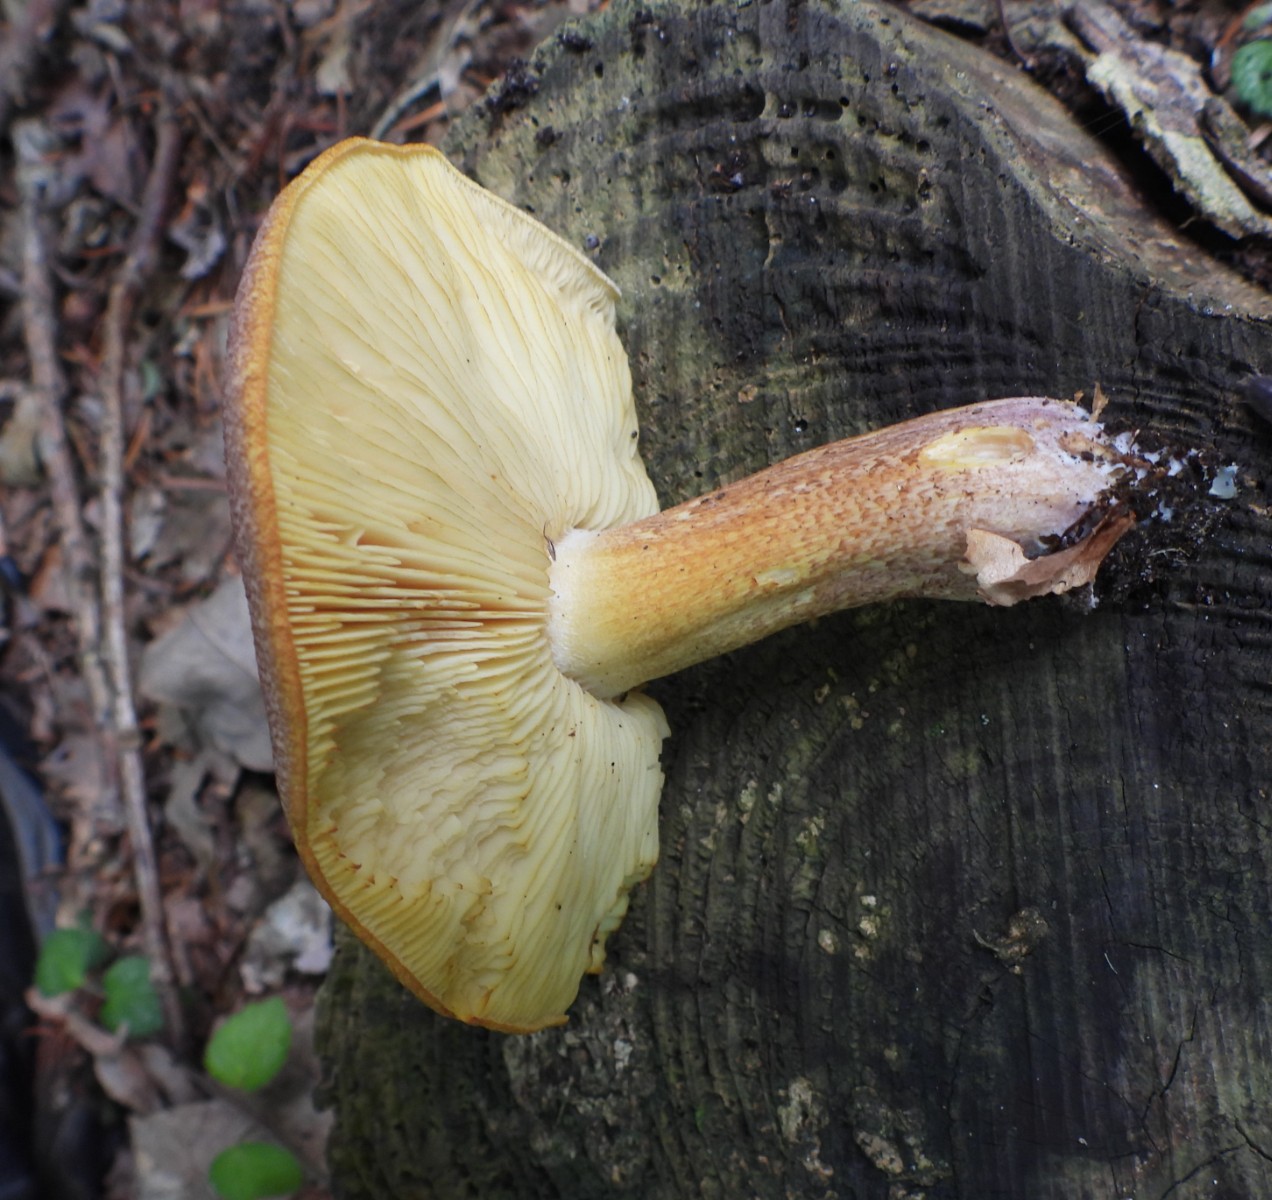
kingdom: Fungi
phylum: Basidiomycota
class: Agaricomycetes
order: Agaricales
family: Tricholomataceae
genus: Tricholomopsis
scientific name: Tricholomopsis rutilans
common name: purpur-væbnerhat
